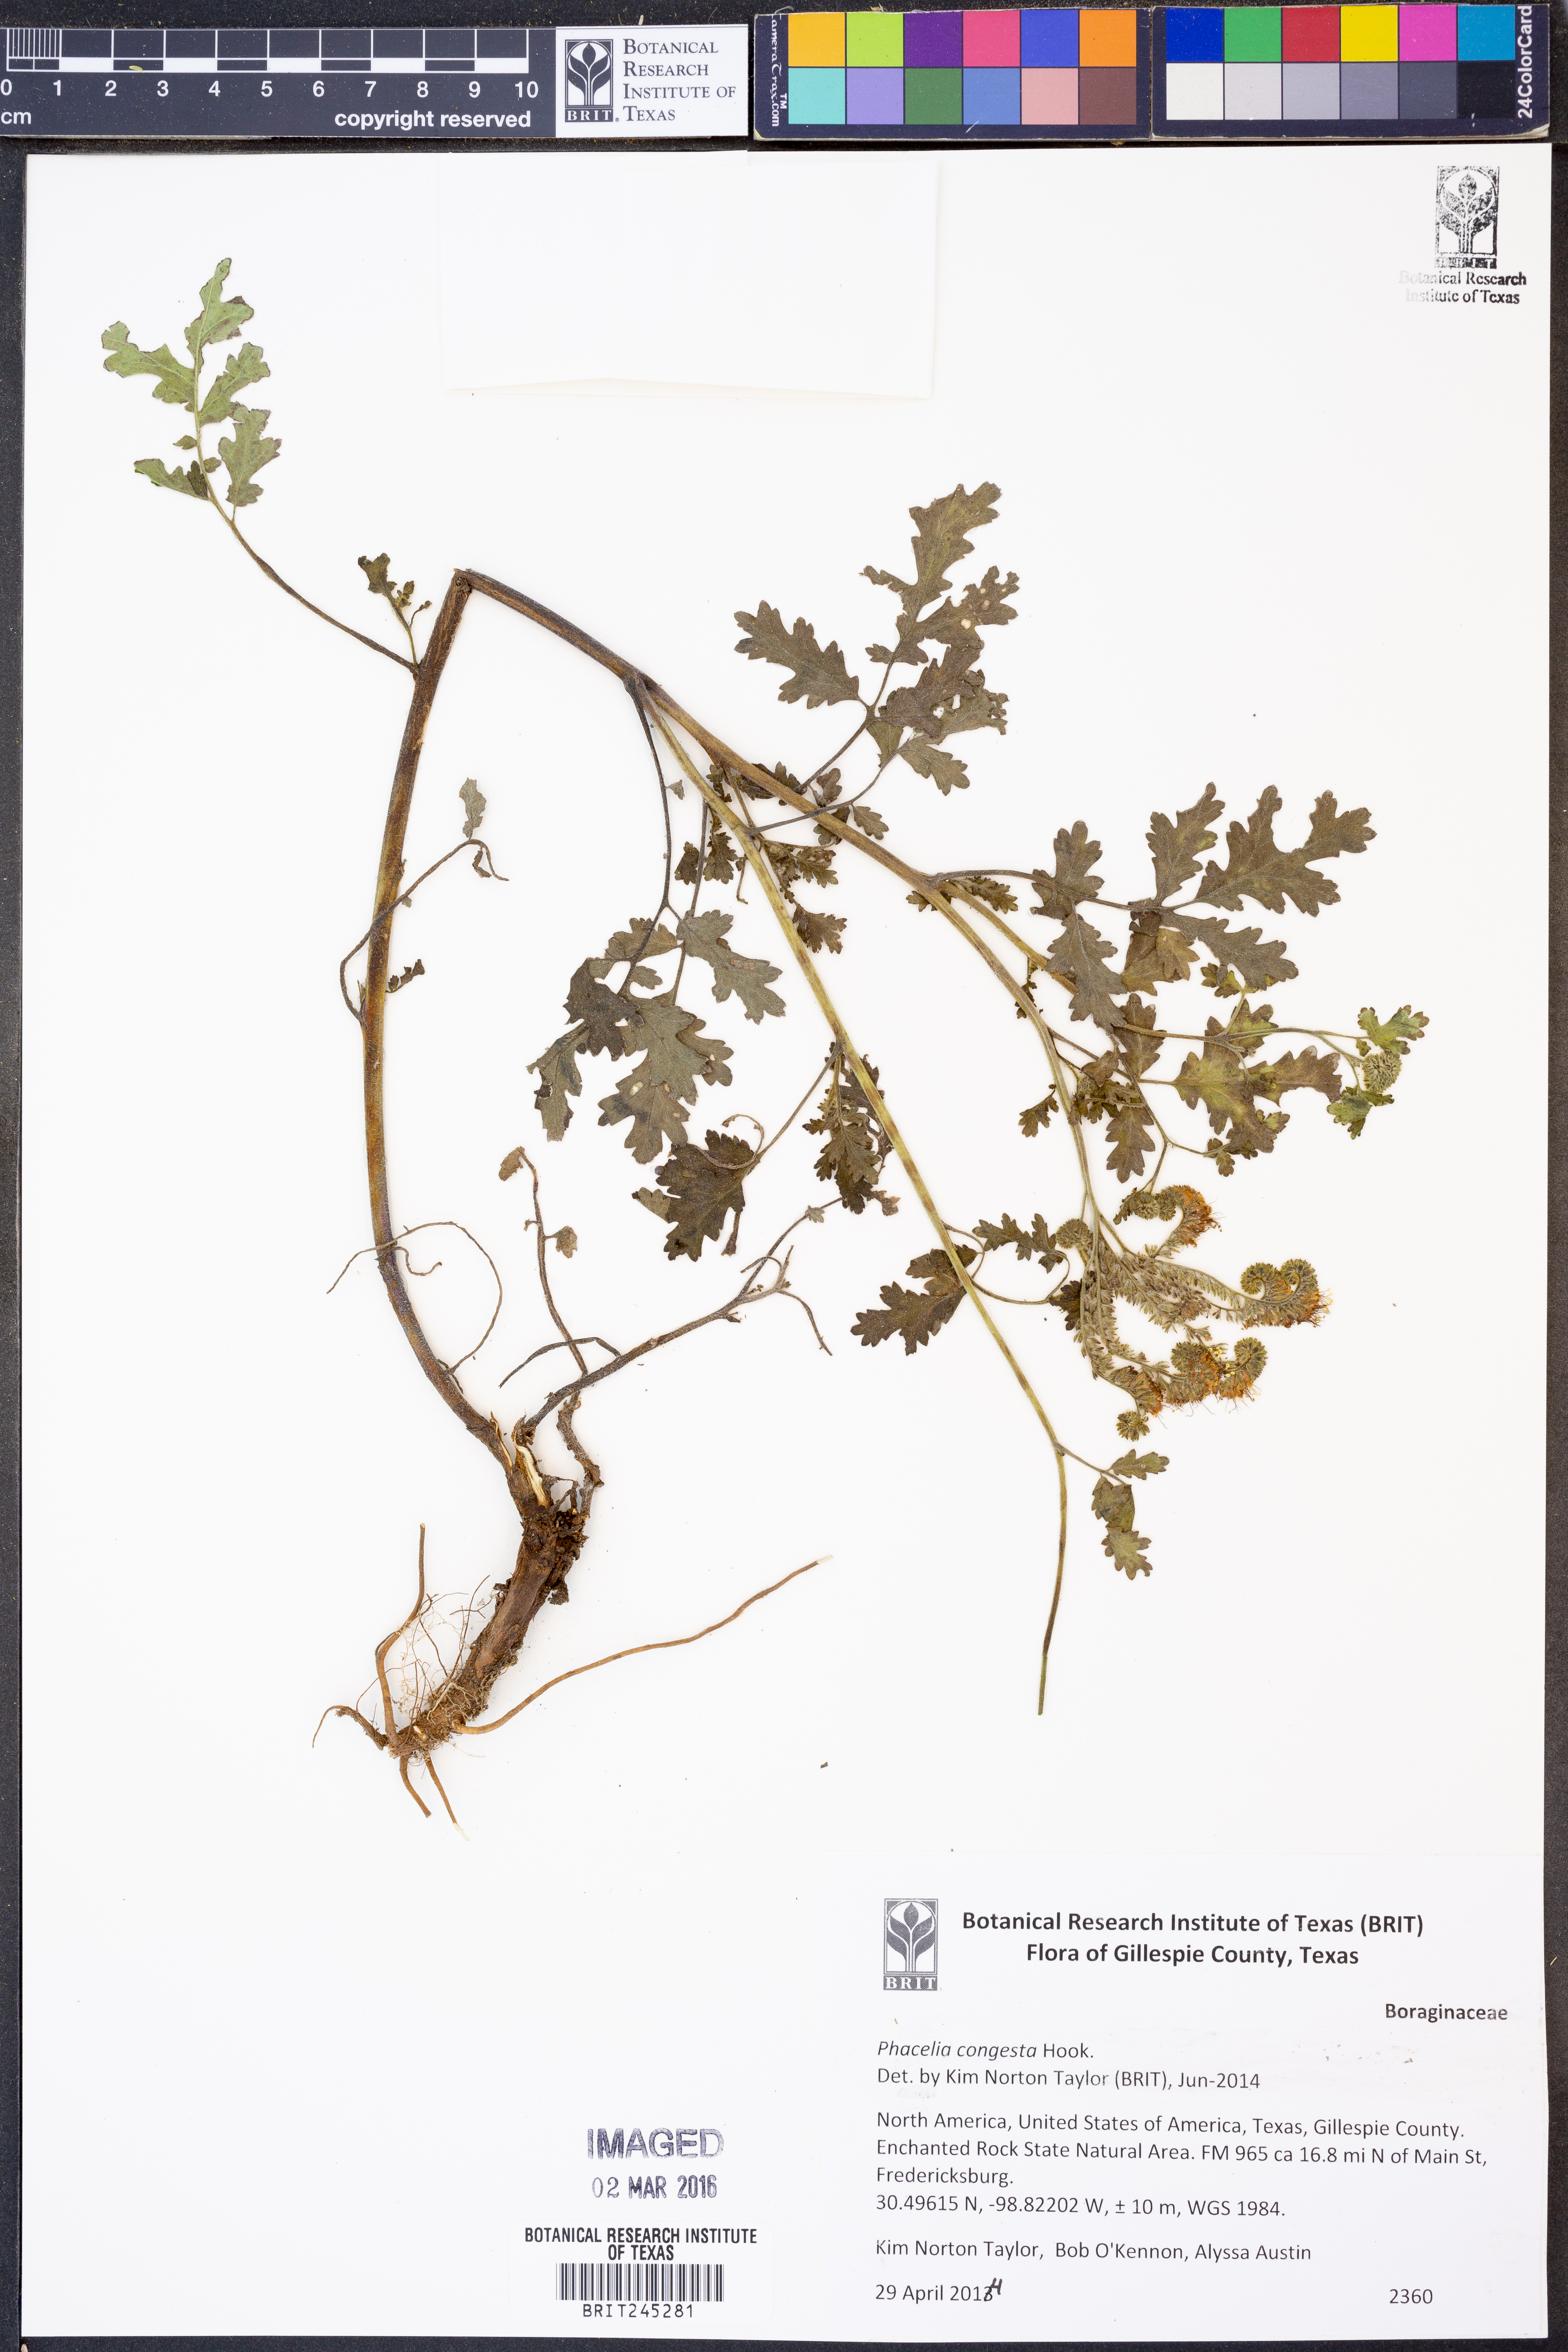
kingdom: Plantae
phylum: Tracheophyta
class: Magnoliopsida
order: Boraginales
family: Hydrophyllaceae
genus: Phacelia
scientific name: Phacelia congesta
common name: Blue curls
